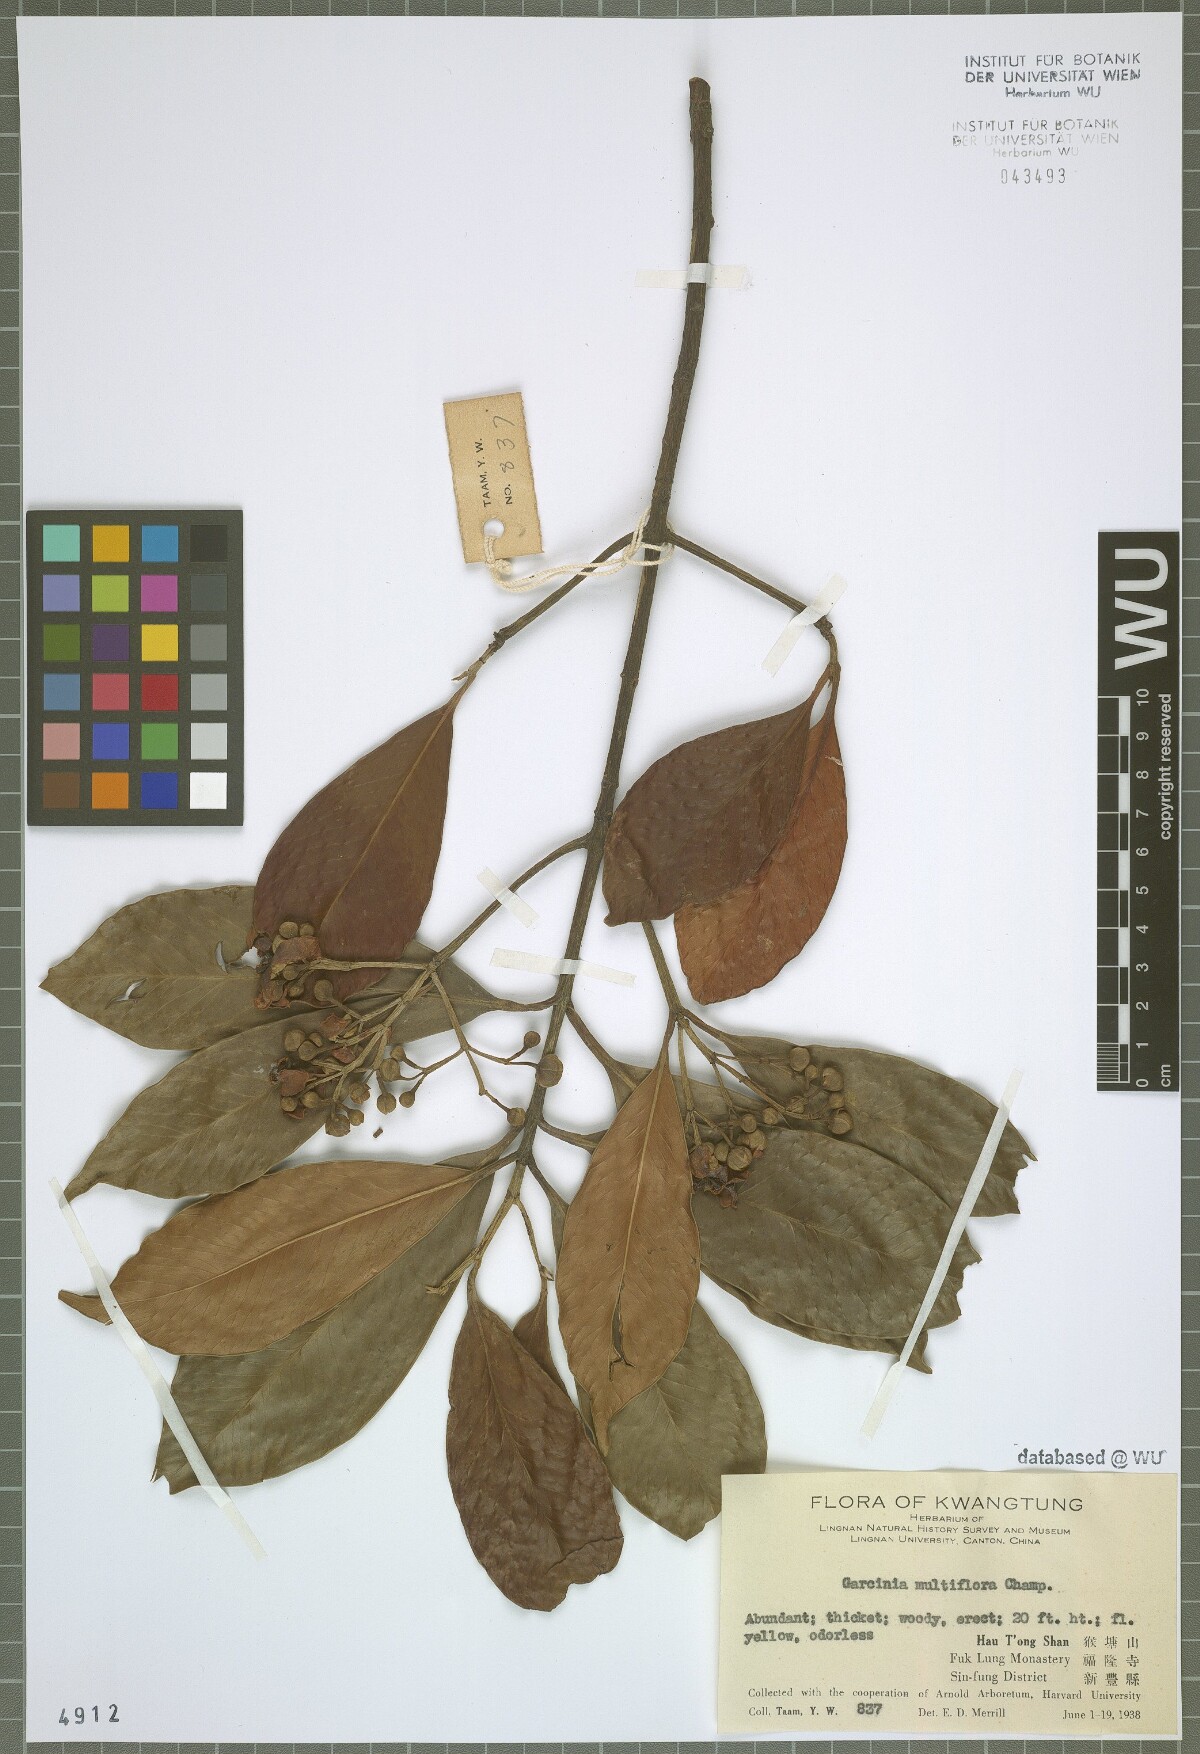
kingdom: Plantae
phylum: Tracheophyta
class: Magnoliopsida
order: Malpighiales
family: Clusiaceae
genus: Garcinia
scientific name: Garcinia multiflora
